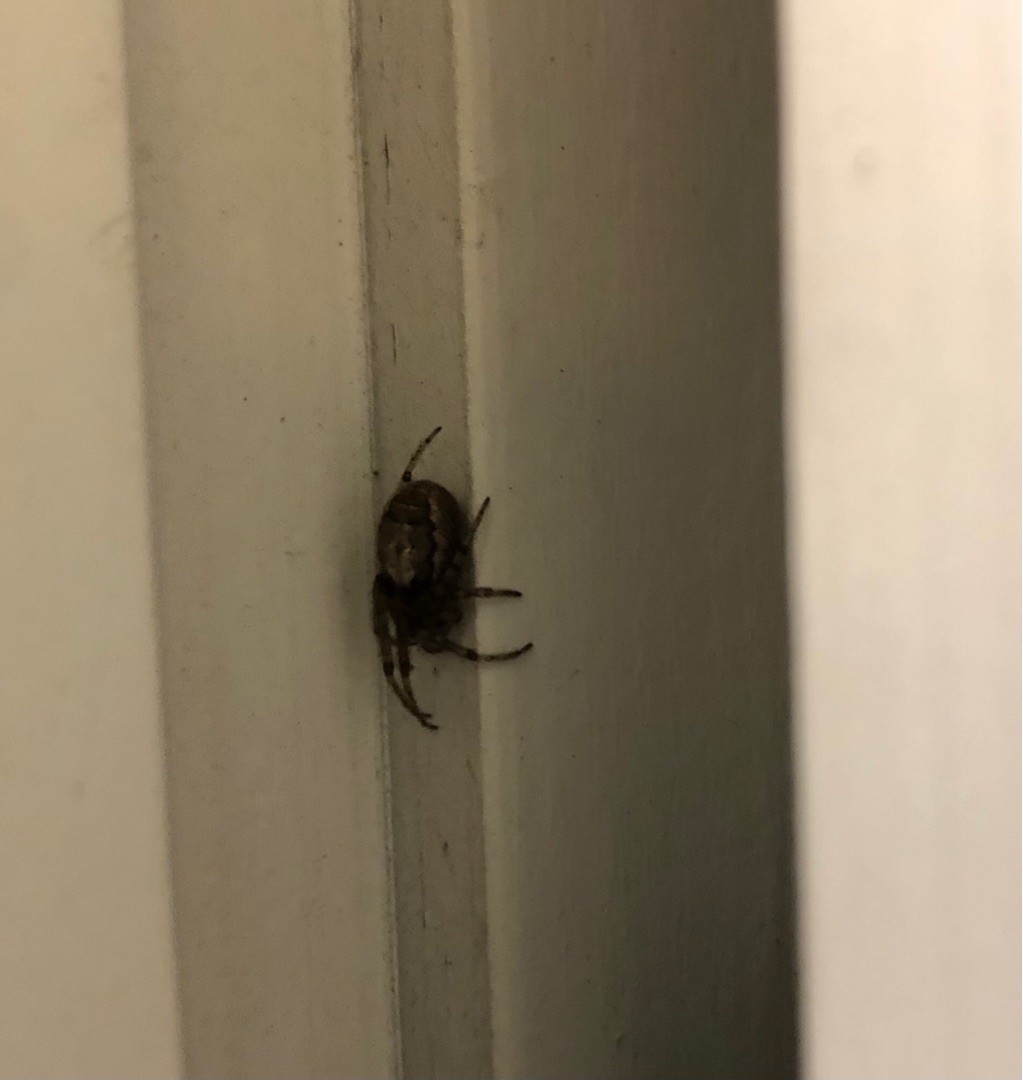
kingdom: Animalia
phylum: Arthropoda
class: Arachnida
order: Araneae
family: Araneidae
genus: Zygiella
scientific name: Zygiella x-notata
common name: Grå sektoredderkop
